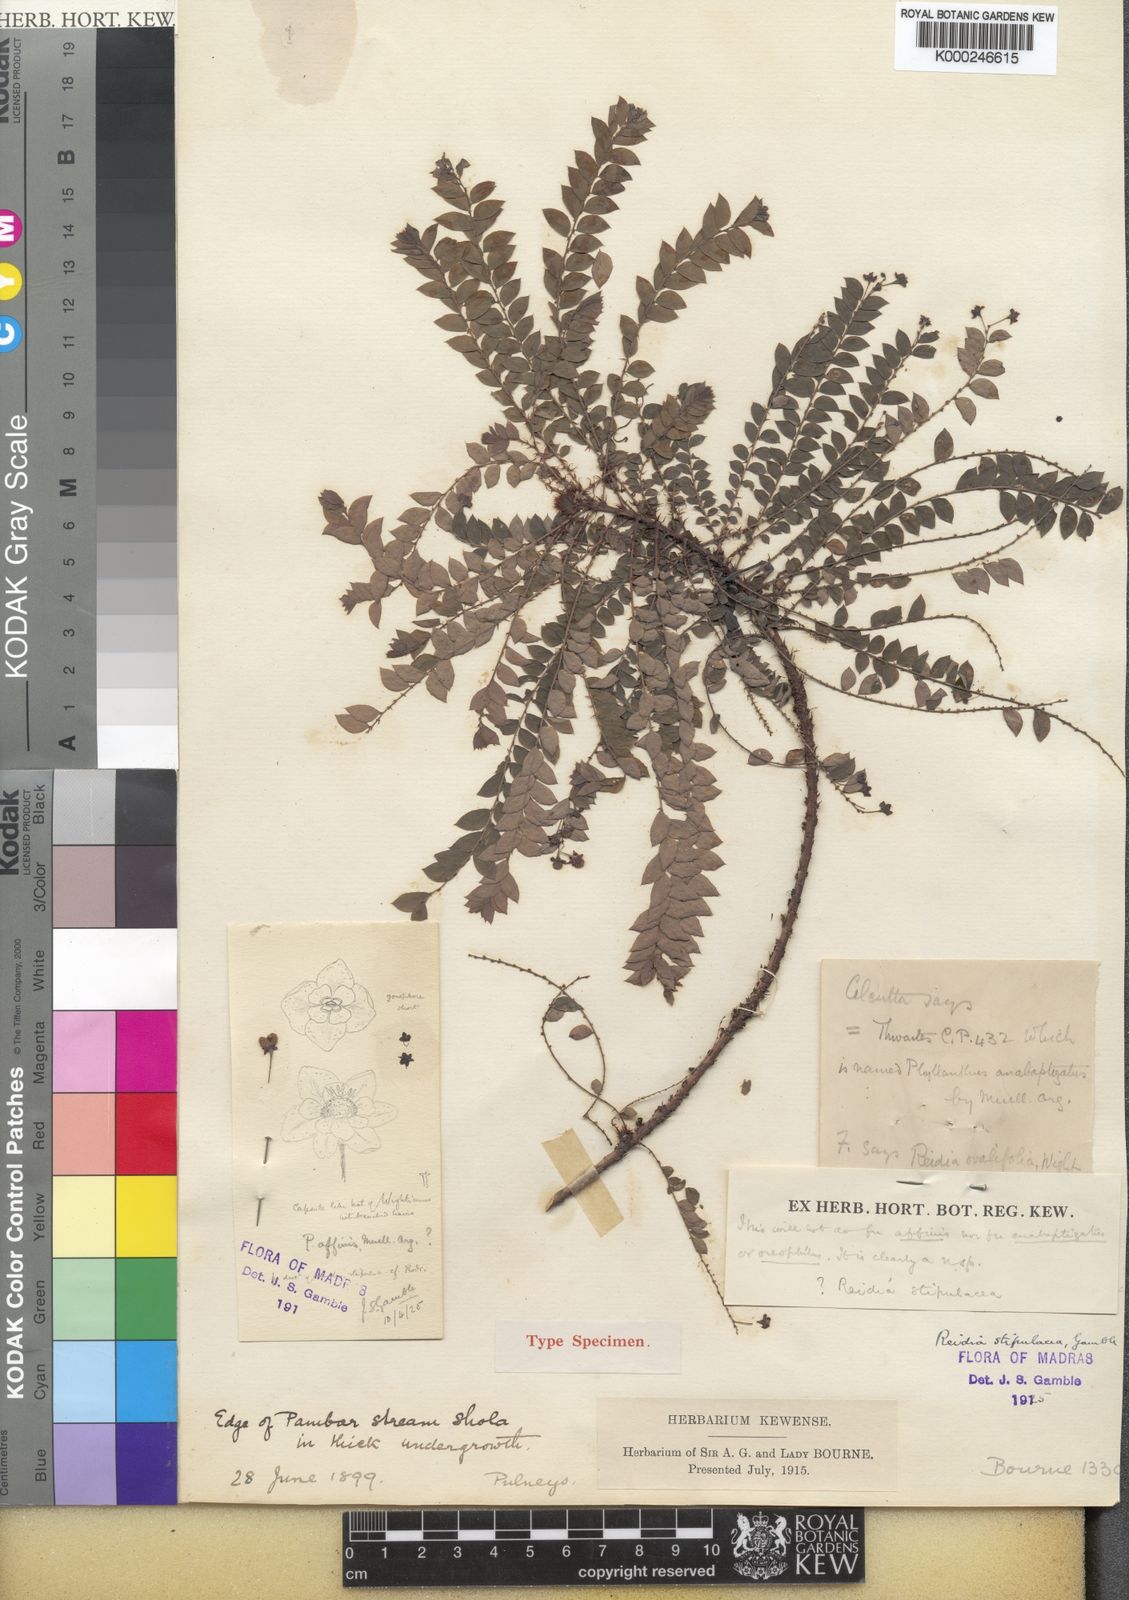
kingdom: Plantae
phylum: Tracheophyta
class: Magnoliopsida
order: Malpighiales
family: Phyllanthaceae
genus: Phyllanthus
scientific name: Phyllanthus chandrabosei
